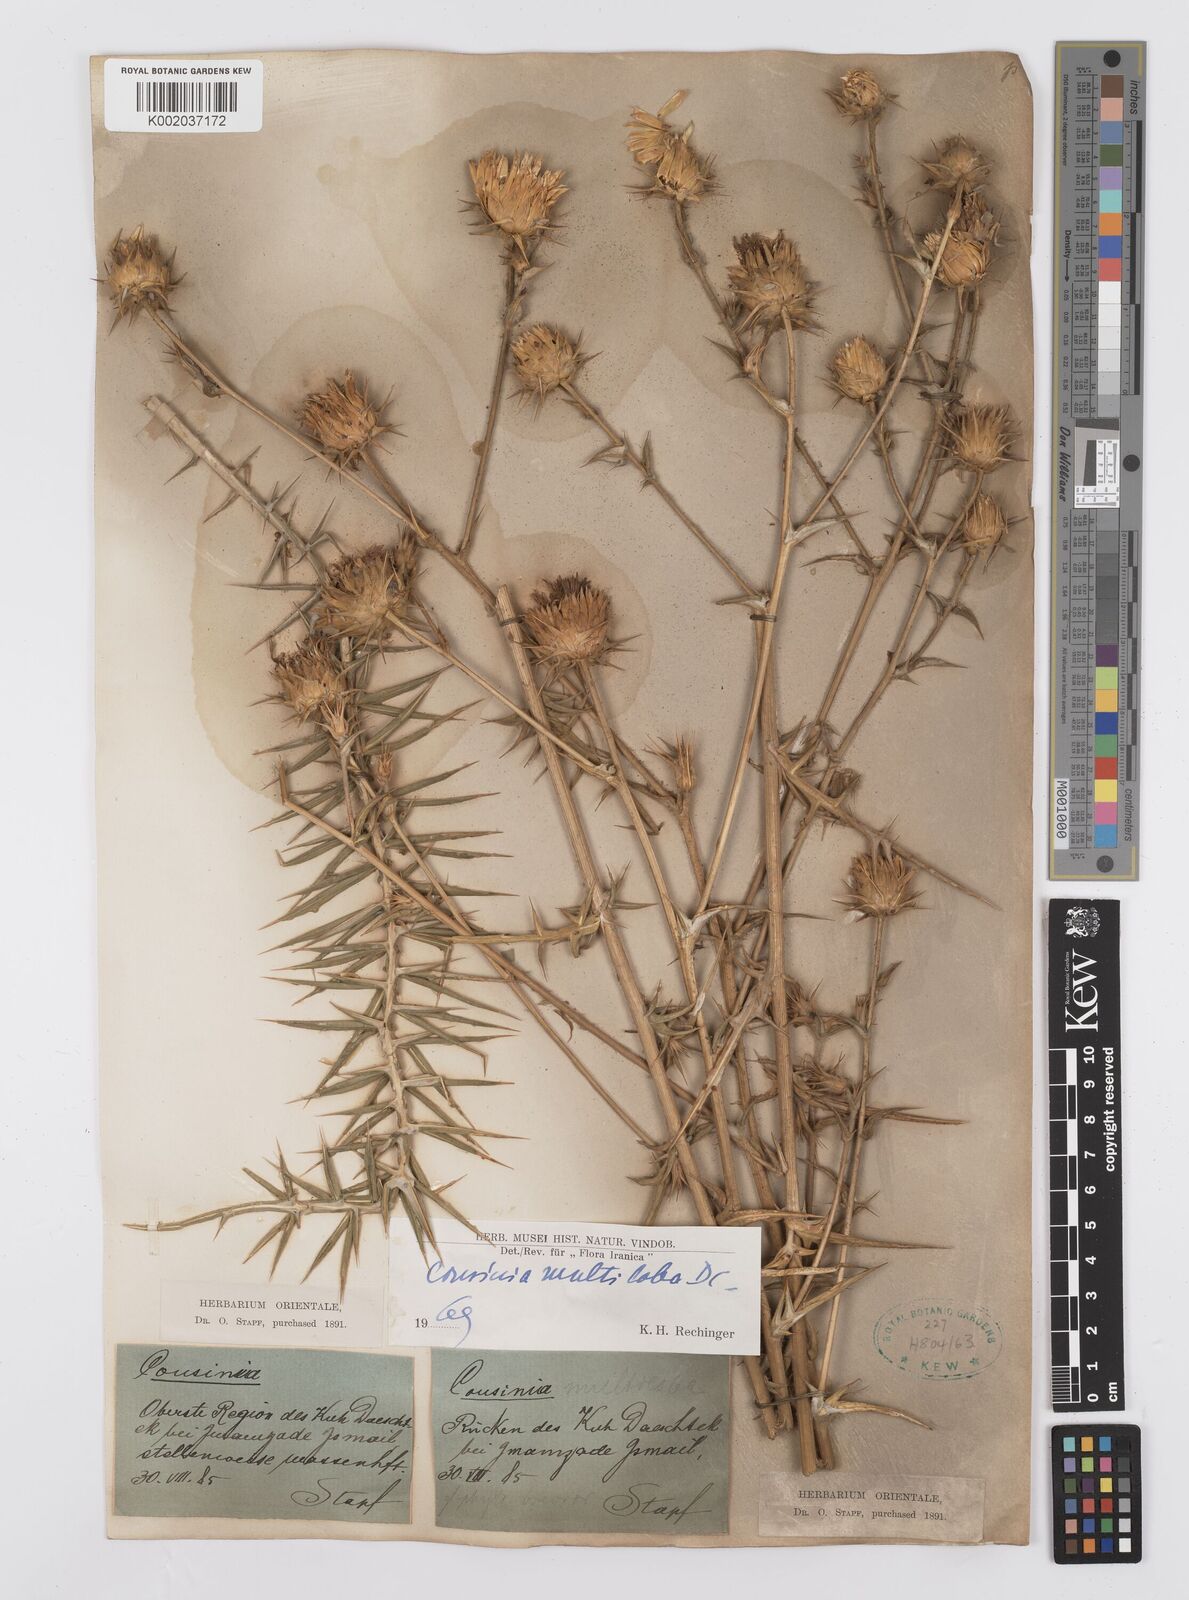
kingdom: Plantae
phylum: Tracheophyta
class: Magnoliopsida
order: Asterales
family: Asteraceae
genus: Cousinia
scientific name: Cousinia multiloba
